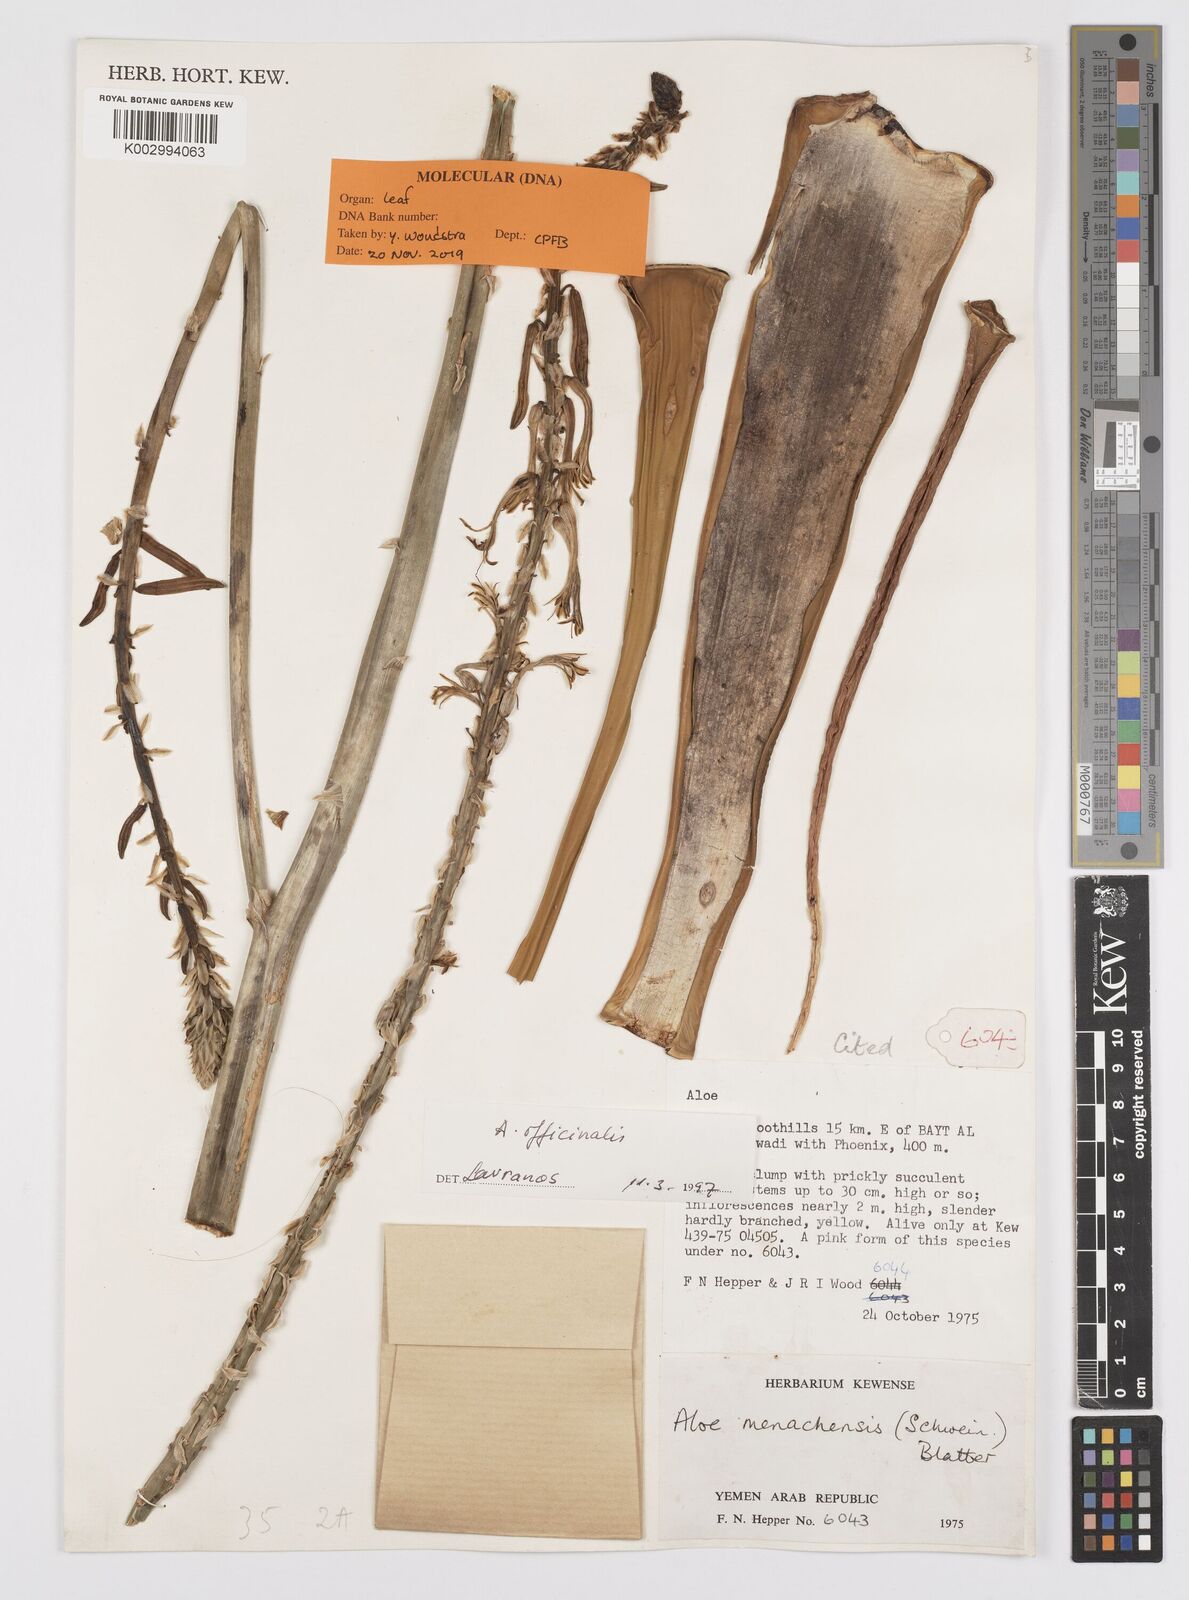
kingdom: Plantae
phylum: Tracheophyta
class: Liliopsida
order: Asparagales
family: Asphodelaceae
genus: Aloe
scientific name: Aloe officinalis
